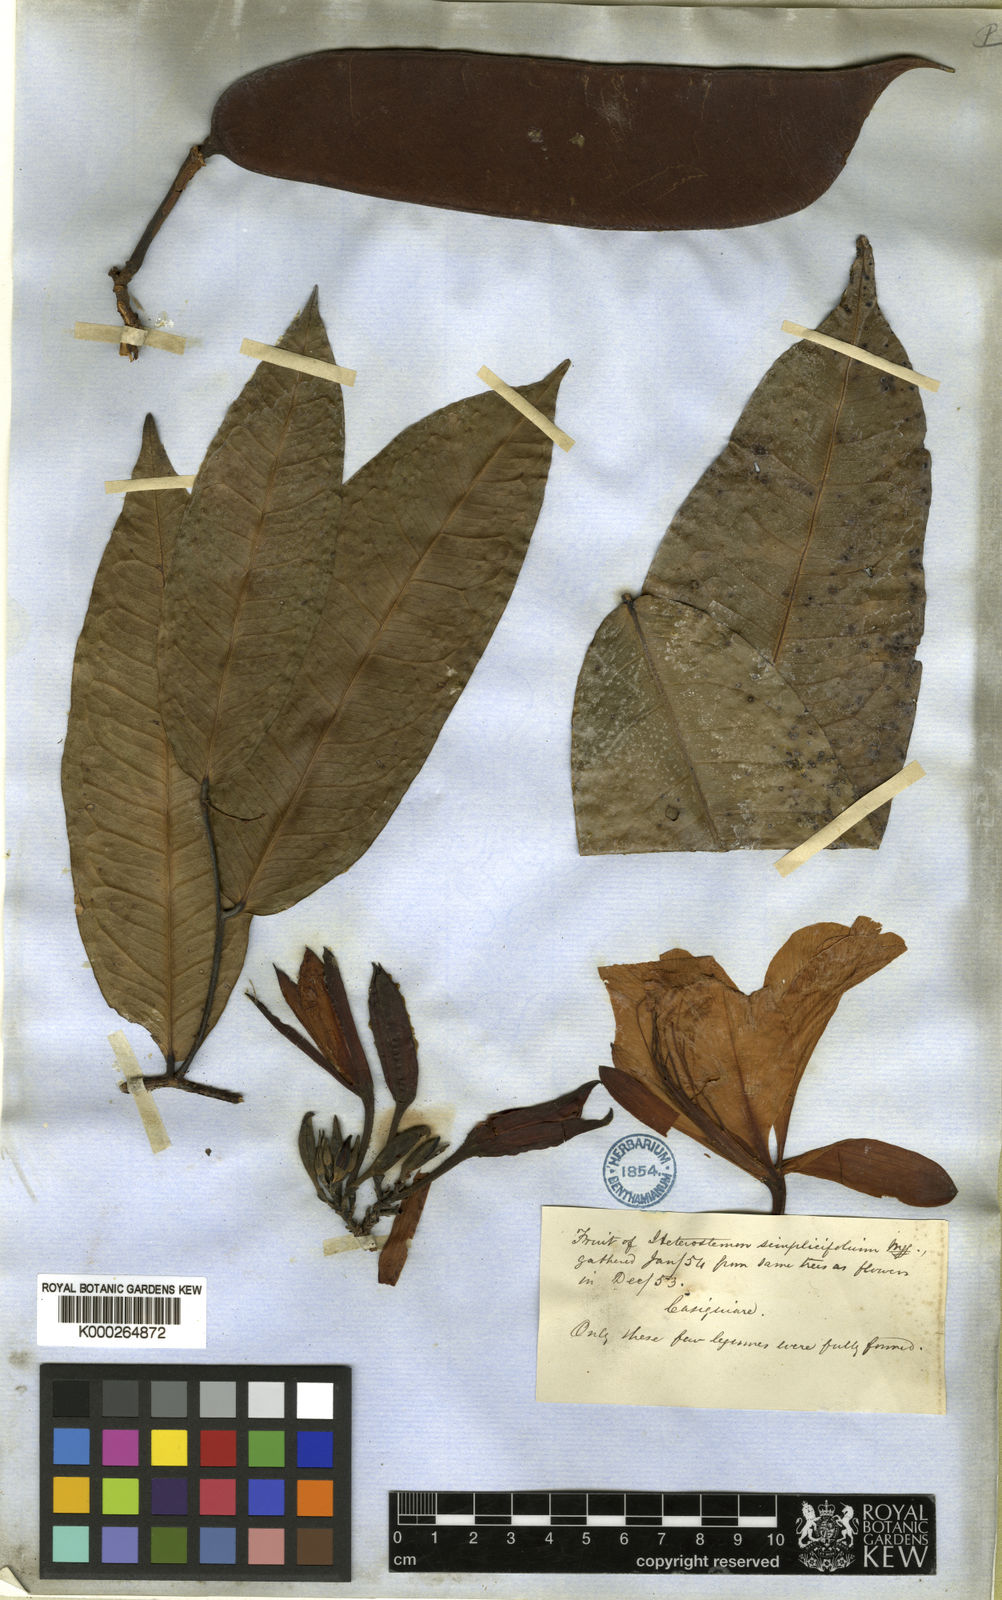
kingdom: Plantae
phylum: Tracheophyta
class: Magnoliopsida
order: Fabales
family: Fabaceae
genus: Heterostemon
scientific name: Heterostemon ellipticus
